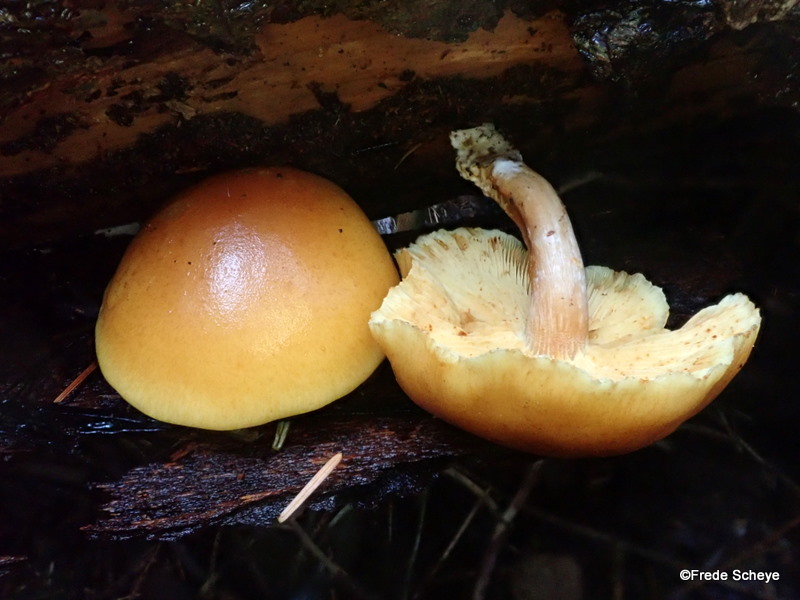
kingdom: Fungi
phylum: Basidiomycota
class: Agaricomycetes
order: Agaricales
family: Hymenogastraceae
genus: Gymnopilus
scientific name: Gymnopilus penetrans
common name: plettet flammehat
